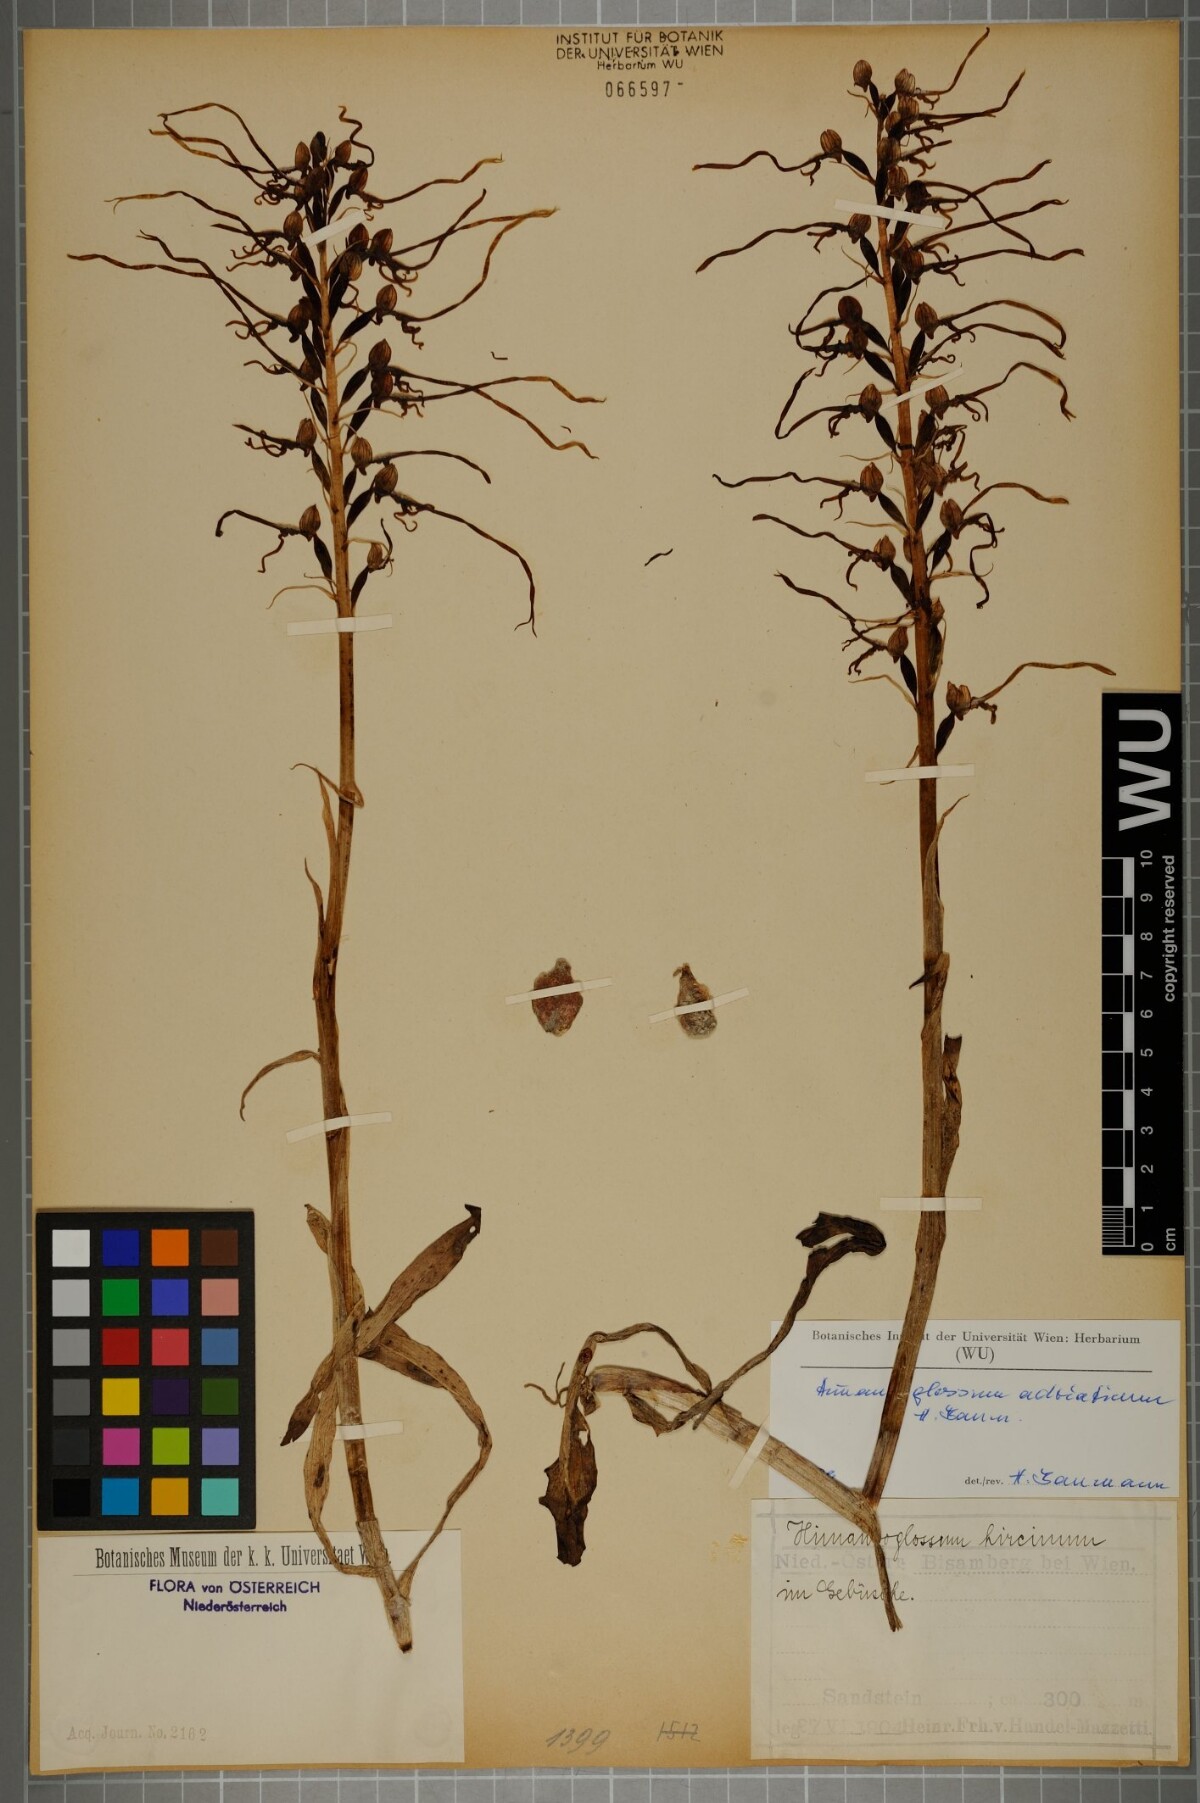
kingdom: Plantae
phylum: Tracheophyta
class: Liliopsida
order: Asparagales
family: Orchidaceae
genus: Himantoglossum
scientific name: Himantoglossum adriaticum
